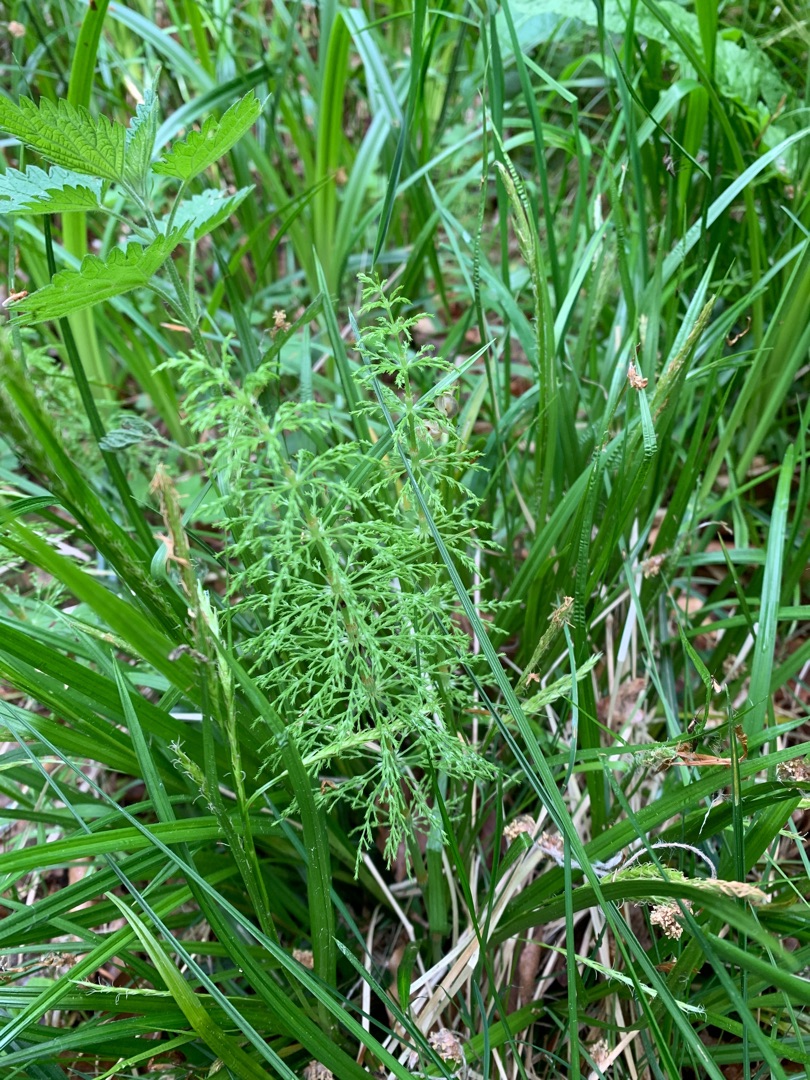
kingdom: Plantae
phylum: Tracheophyta
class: Polypodiopsida
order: Equisetales
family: Equisetaceae
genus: Equisetum
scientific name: Equisetum sylvaticum
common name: Skov-padderok
